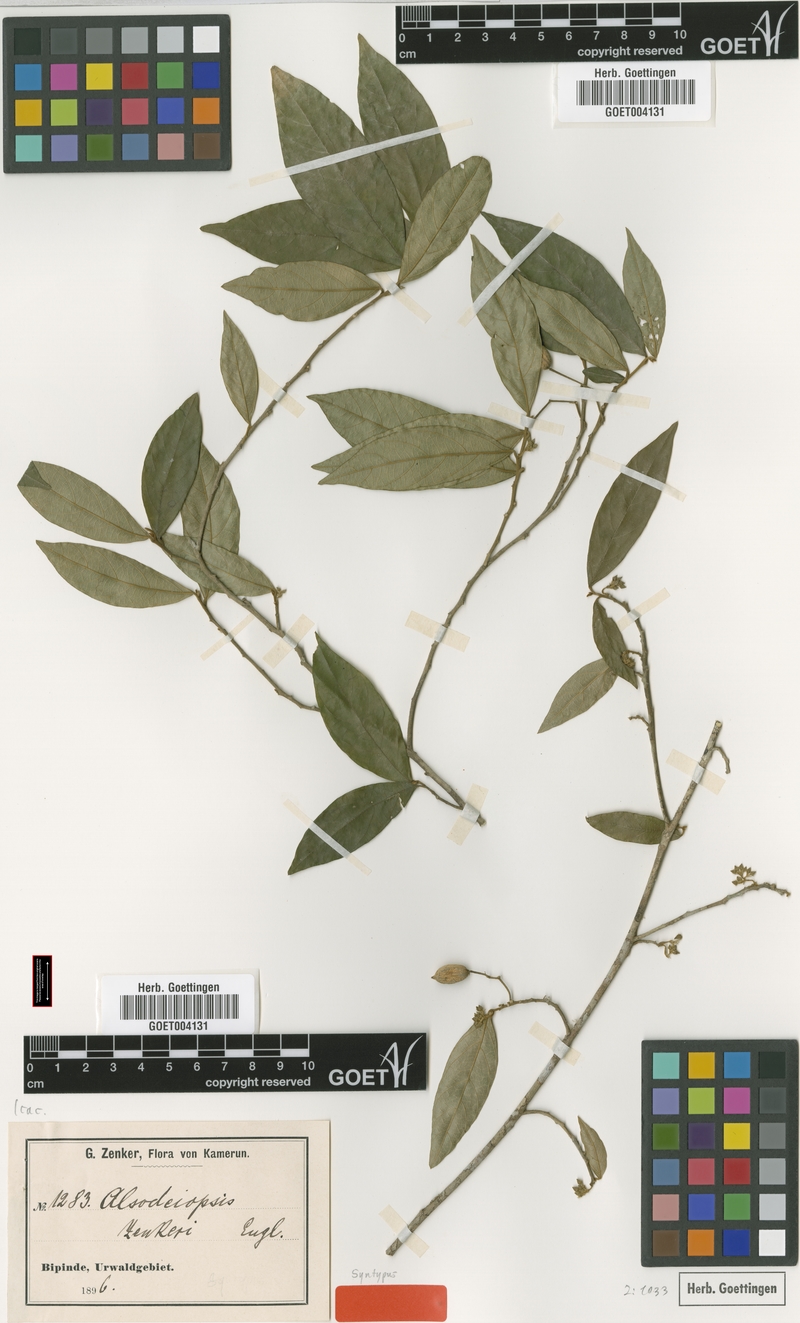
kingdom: Plantae
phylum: Tracheophyta
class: Magnoliopsida
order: Icacinales
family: Icacinaceae
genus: Alsodeiopsis
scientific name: Alsodeiopsis zenkeri
